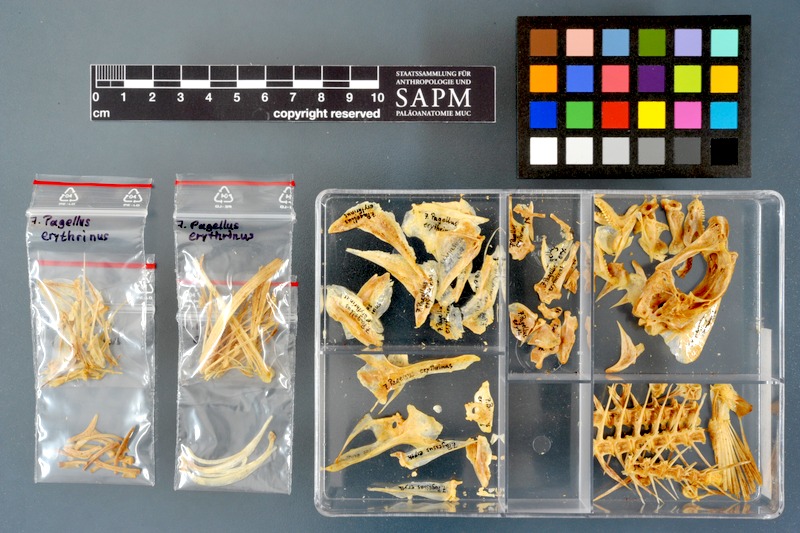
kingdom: Animalia
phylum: Chordata
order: Perciformes
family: Sparidae
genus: Pagellus
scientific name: Pagellus erythrinus
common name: Pandora
